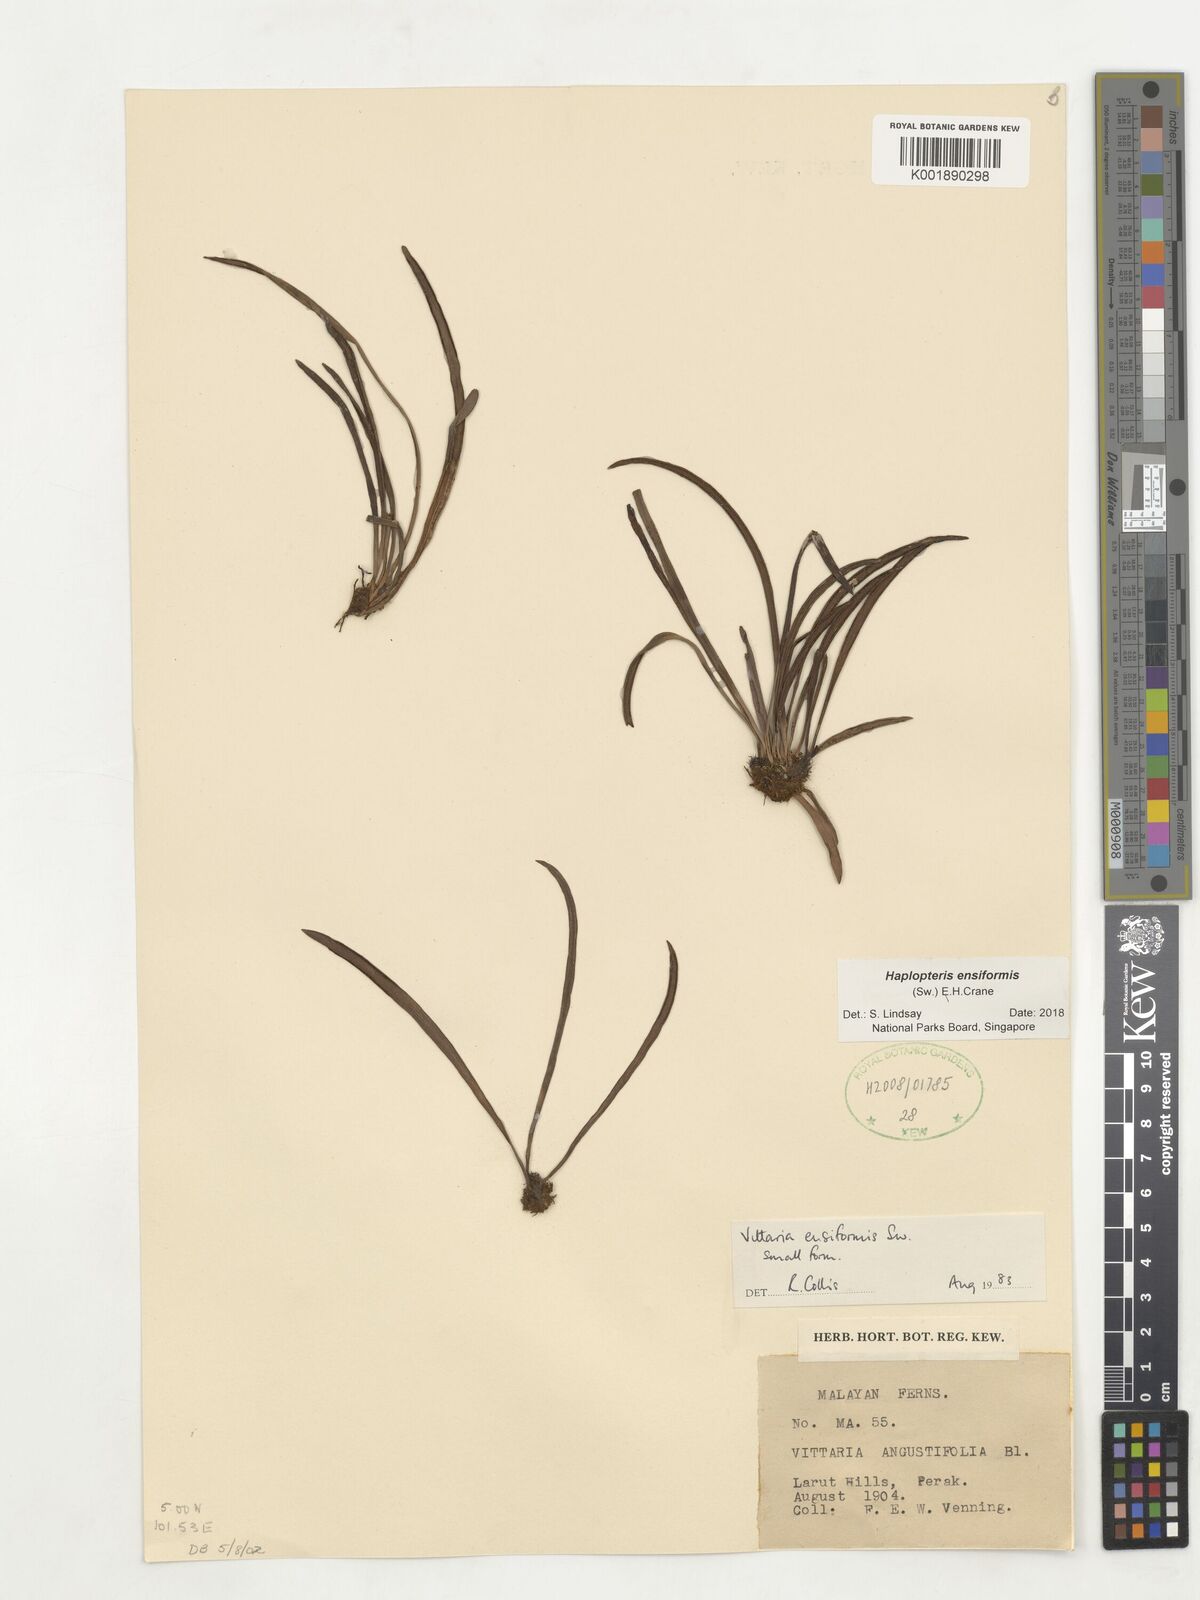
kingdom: Plantae
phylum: Tracheophyta
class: Polypodiopsida
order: Polypodiales
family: Pteridaceae
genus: Haplopteris
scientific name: Haplopteris ensiformis
